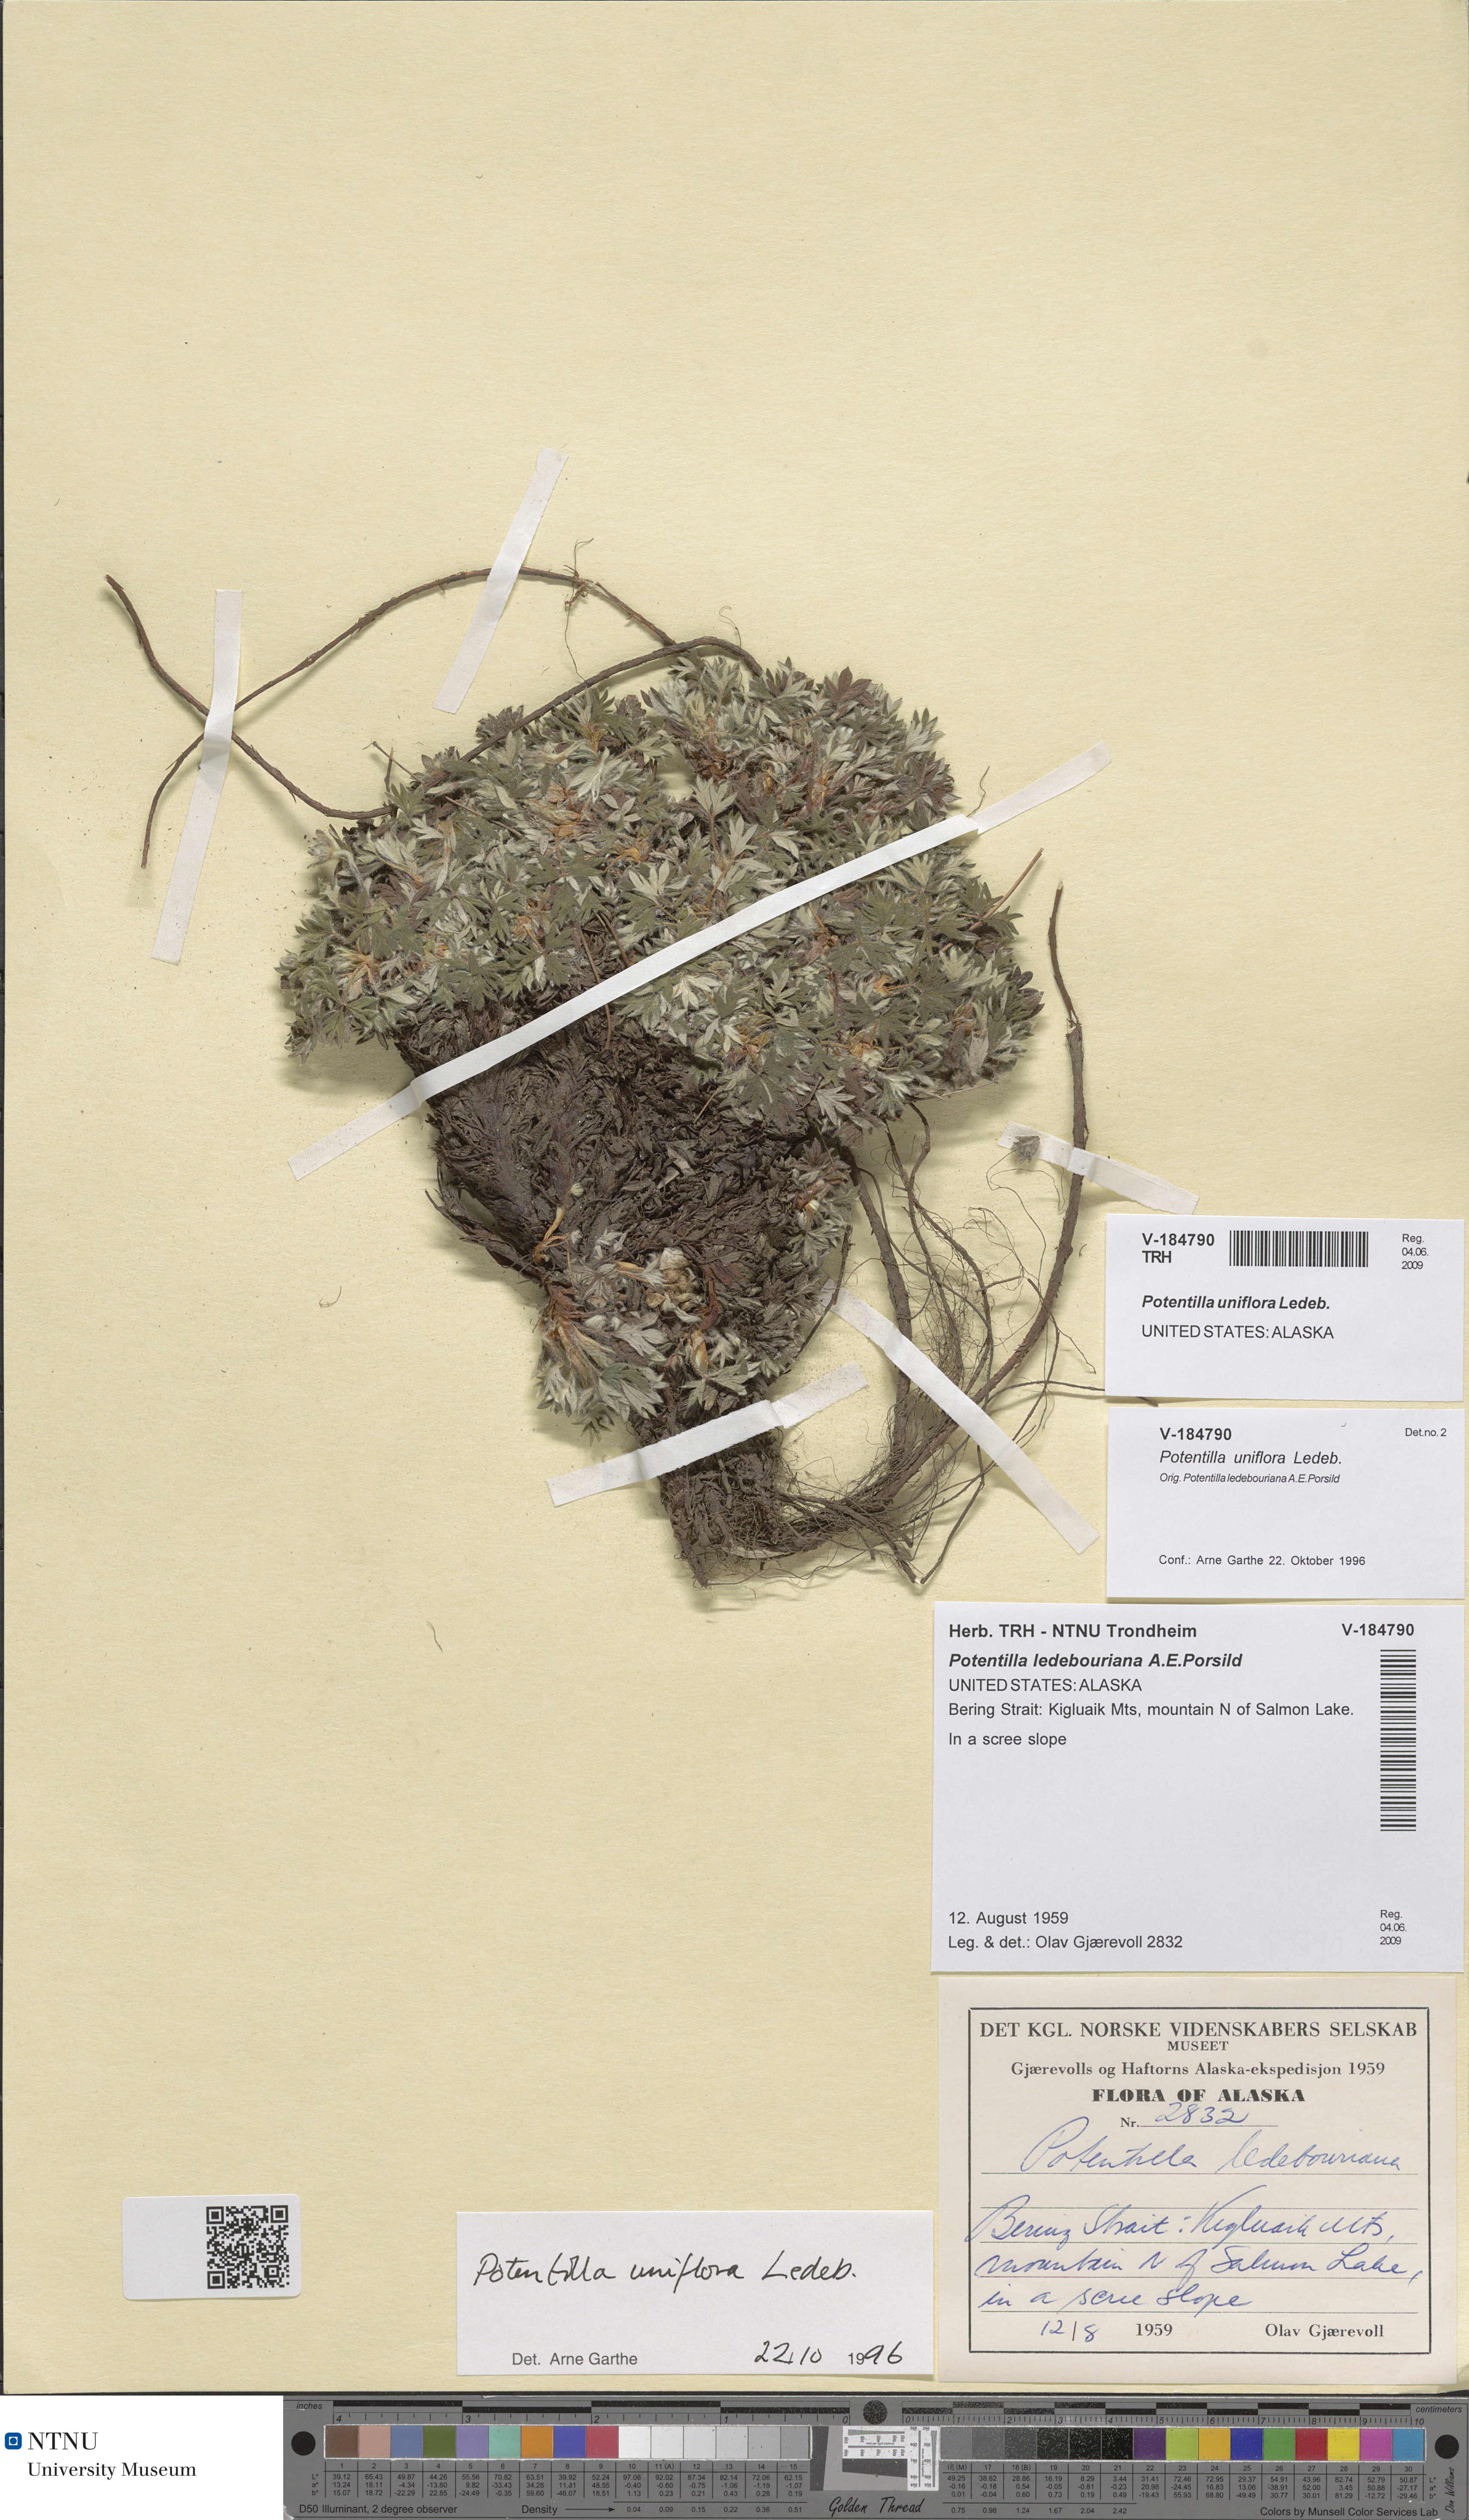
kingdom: Plantae
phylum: Tracheophyta
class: Magnoliopsida
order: Rosales
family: Rosaceae
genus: Potentilla
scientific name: Potentilla uniflora
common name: One-flowered cinquefoil
